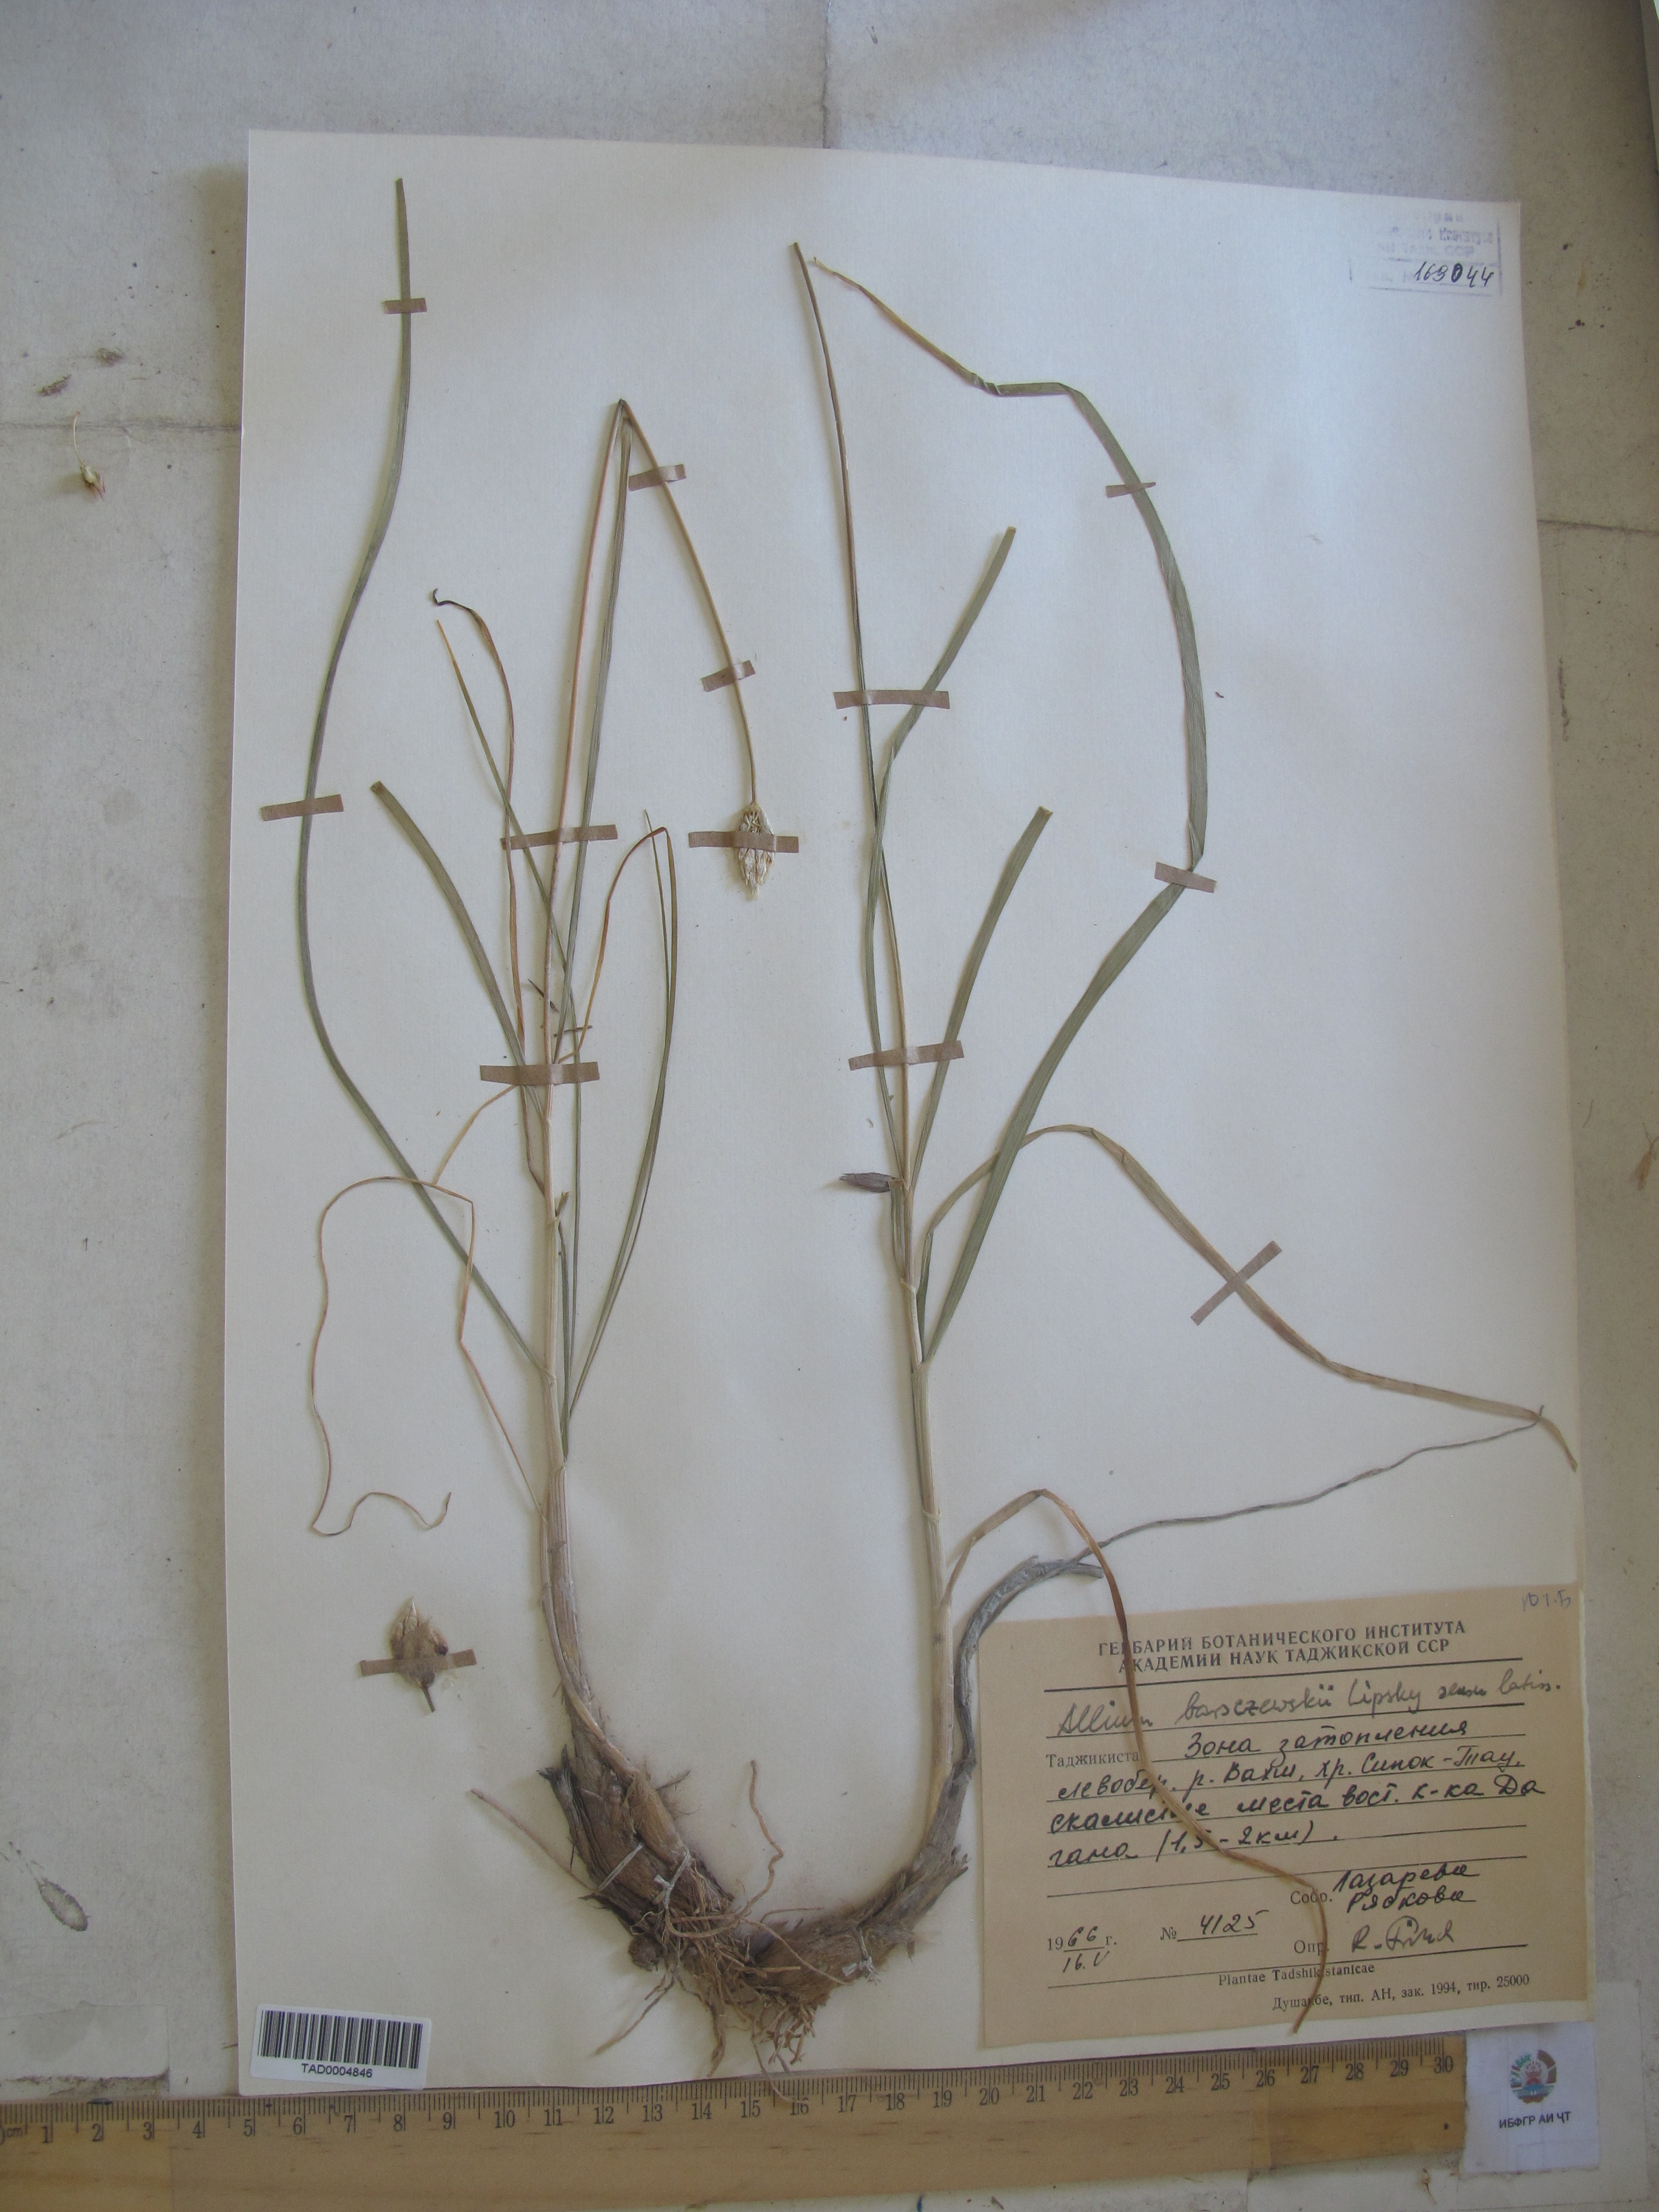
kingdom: Plantae
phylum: Tracheophyta
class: Liliopsida
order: Asparagales
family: Amaryllidaceae
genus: Allium
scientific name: Allium barsczewskii
